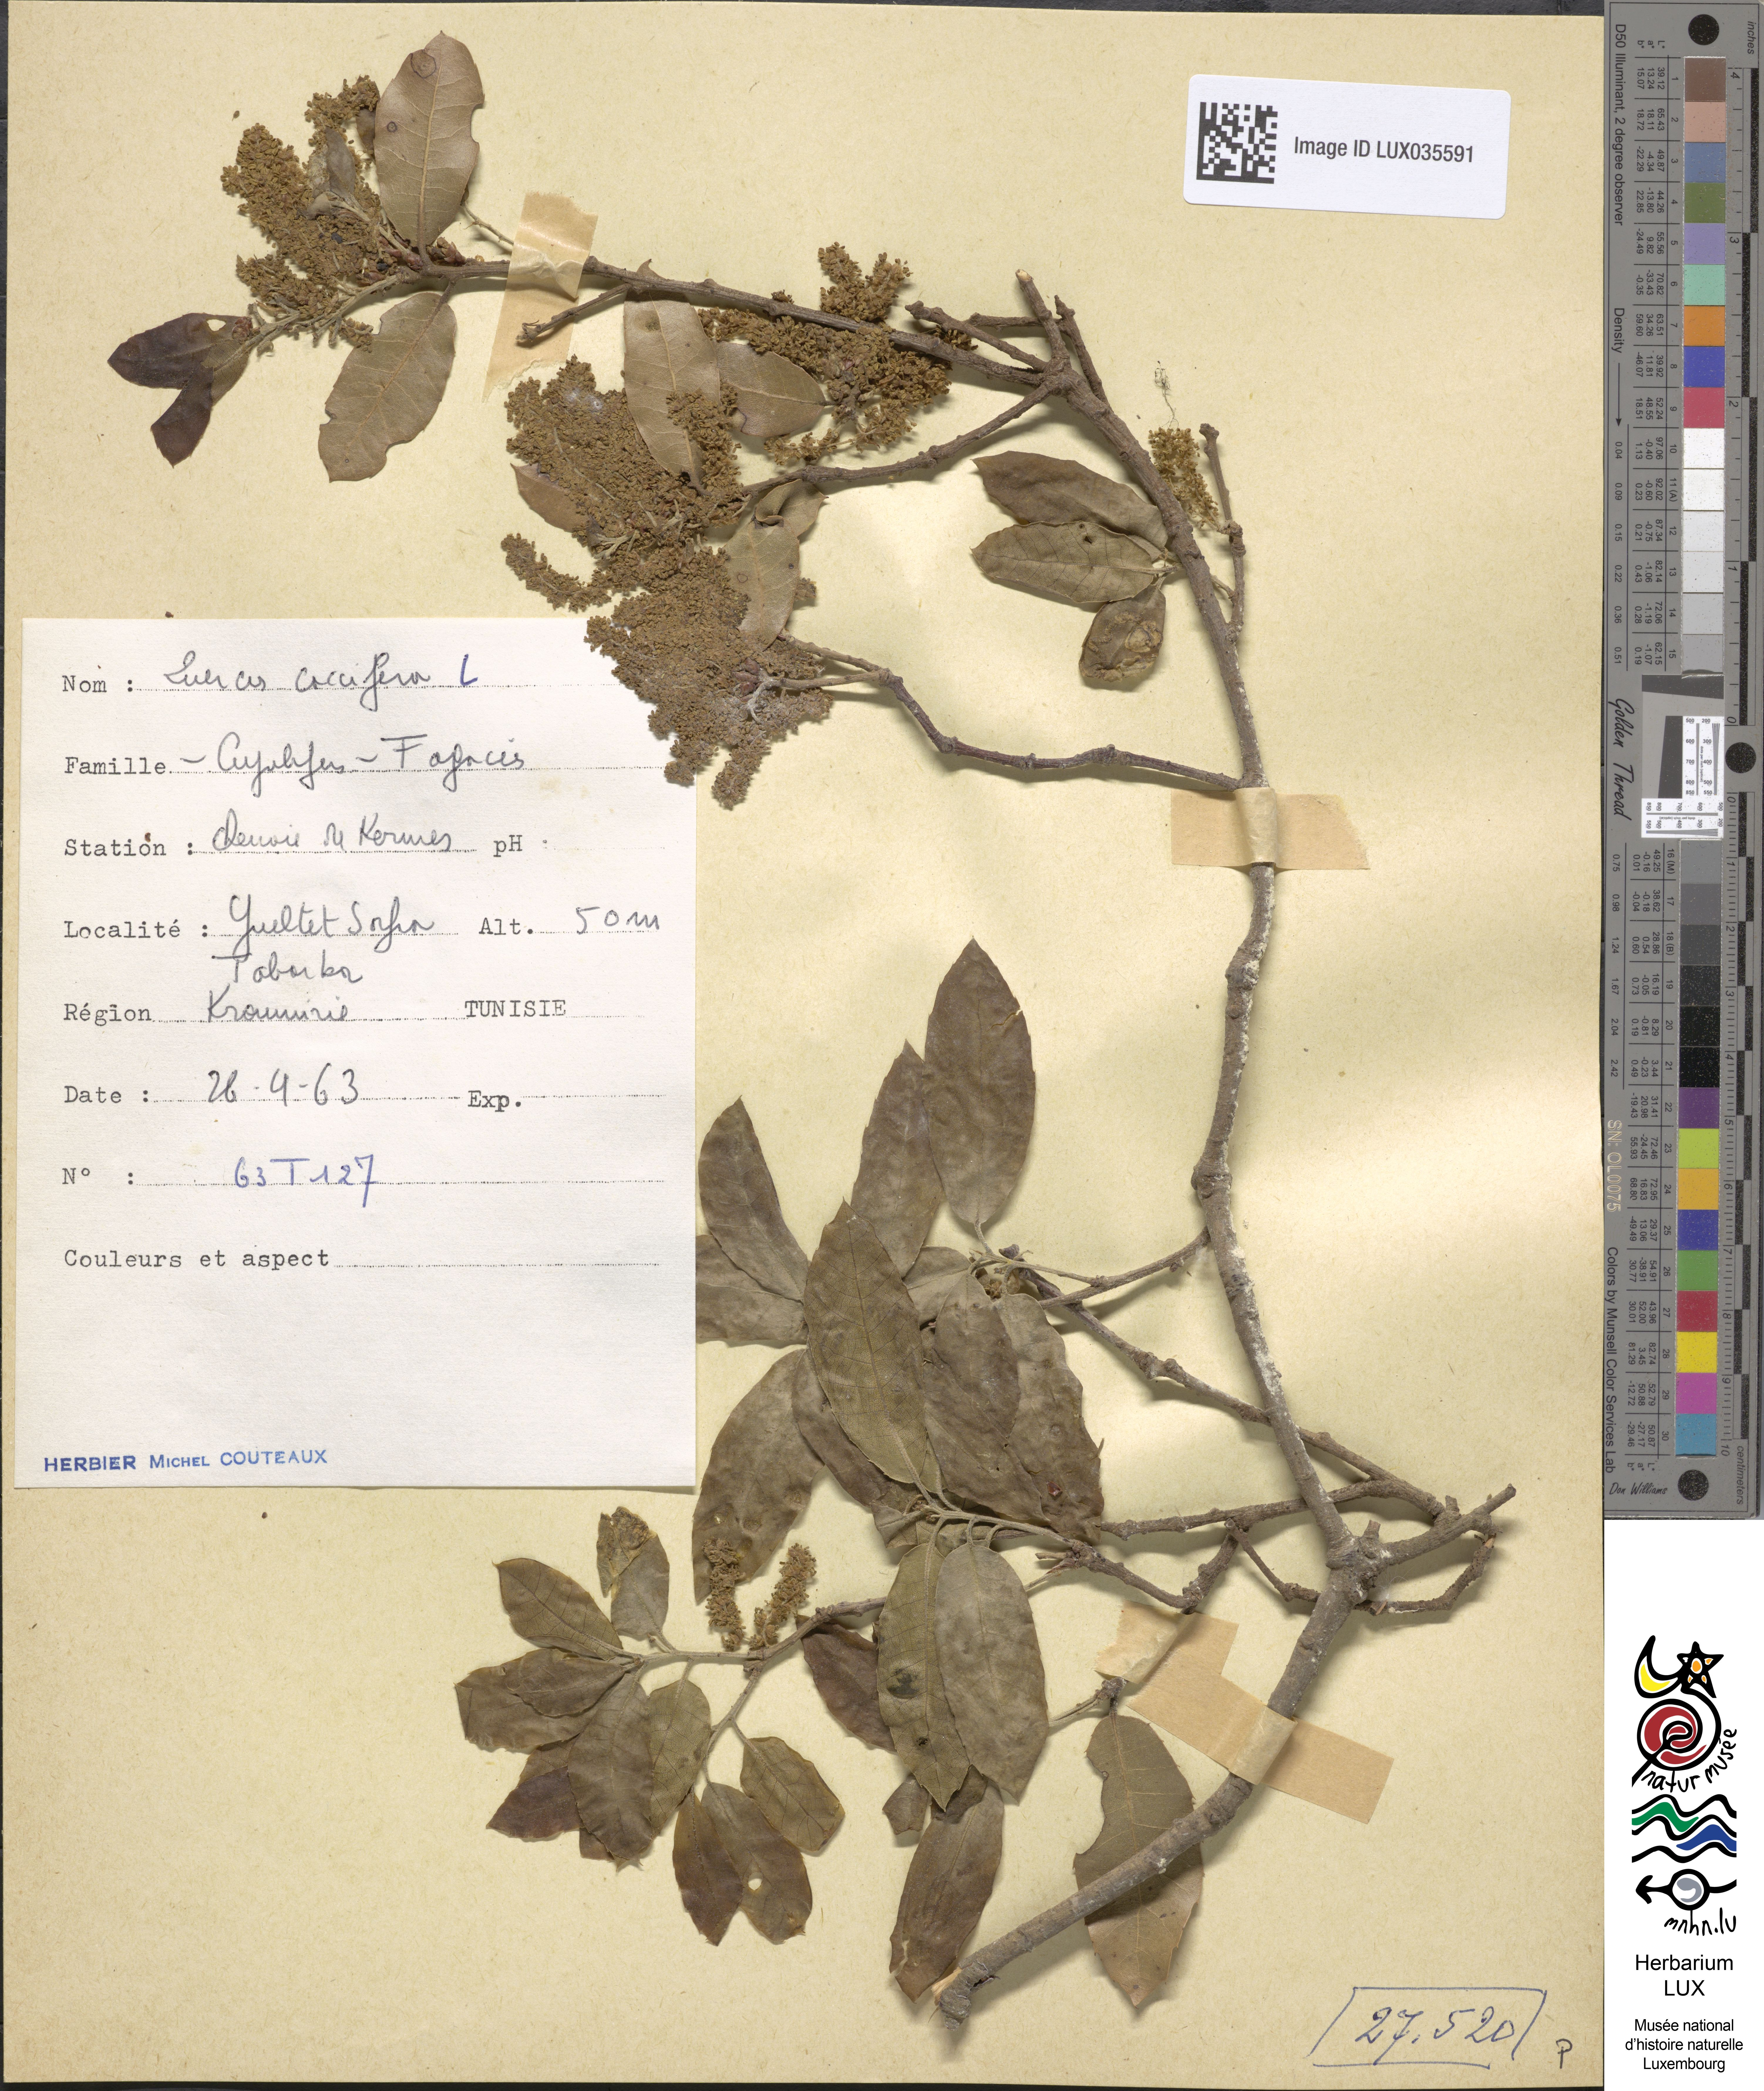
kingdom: Plantae
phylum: Tracheophyta
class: Magnoliopsida
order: Fagales
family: Fagaceae
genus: Quercus
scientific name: Quercus coccifera
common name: Kermes oak
